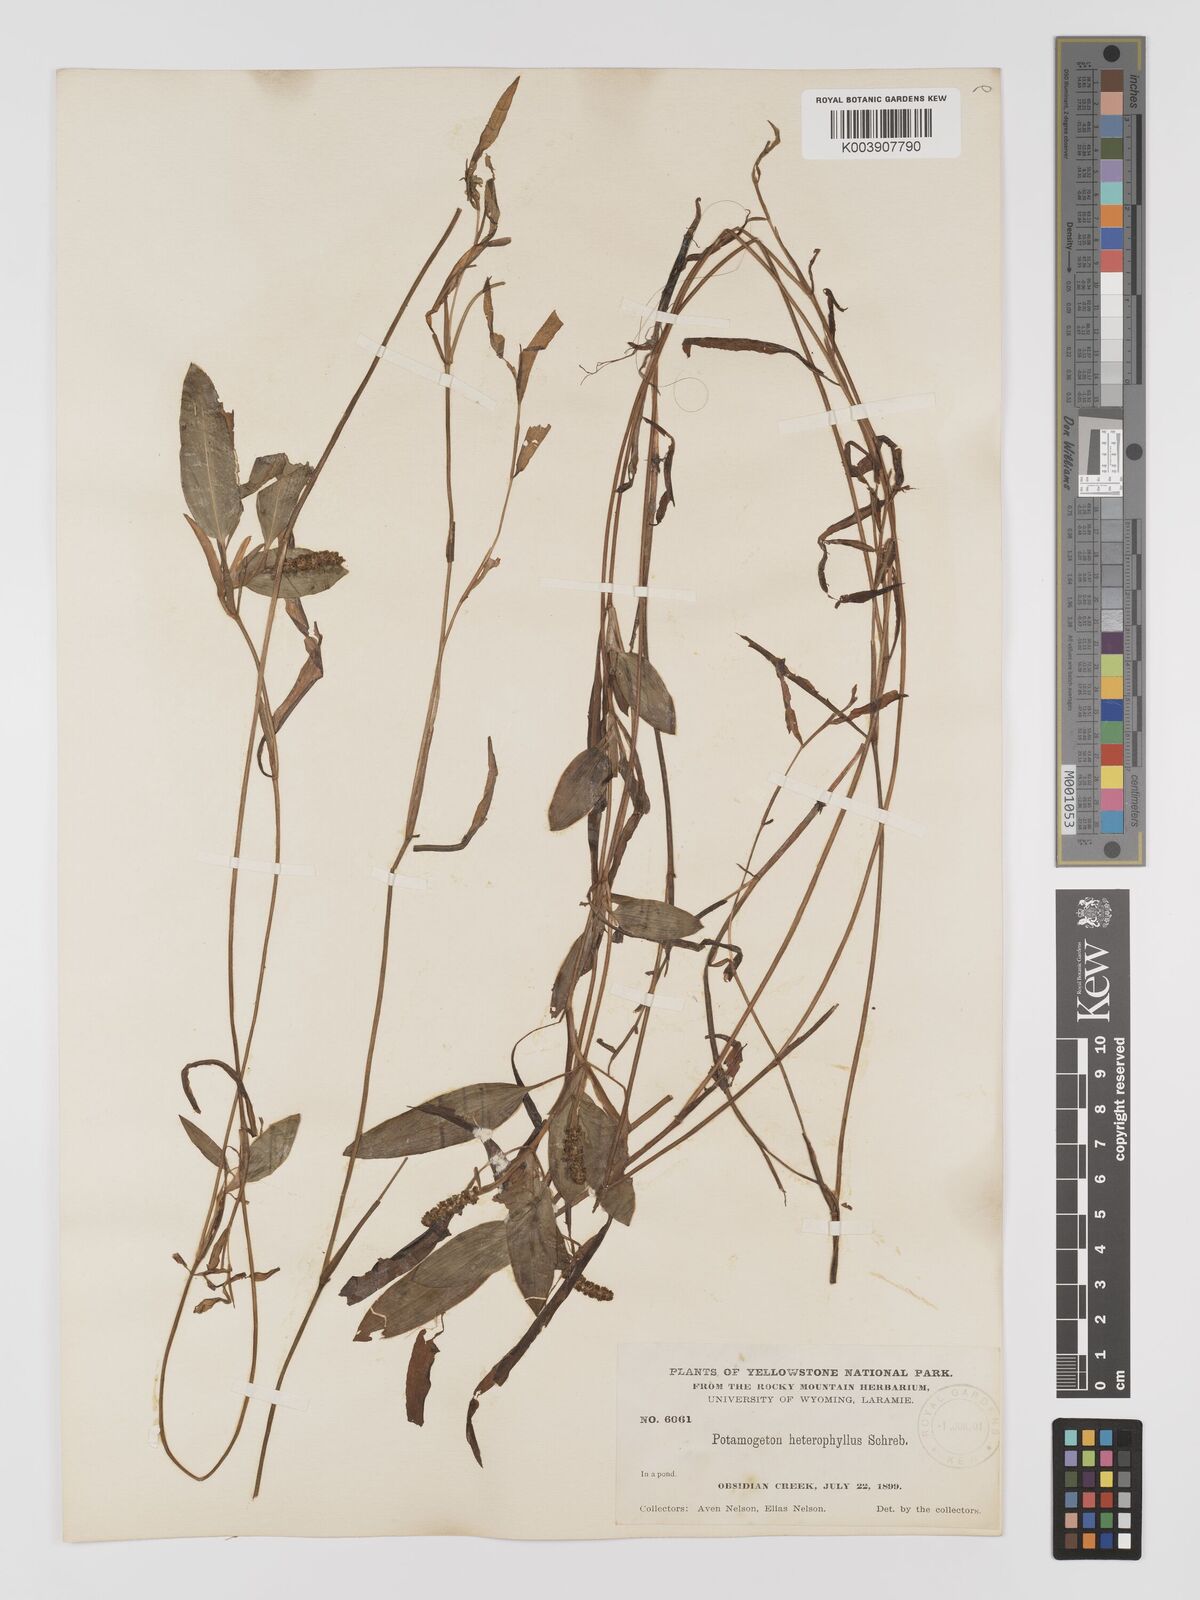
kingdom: Plantae
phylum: Tracheophyta
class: Liliopsida
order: Alismatales
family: Potamogetonaceae
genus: Potamogeton
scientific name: Potamogeton gramineus
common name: Various-leaved pondweed
